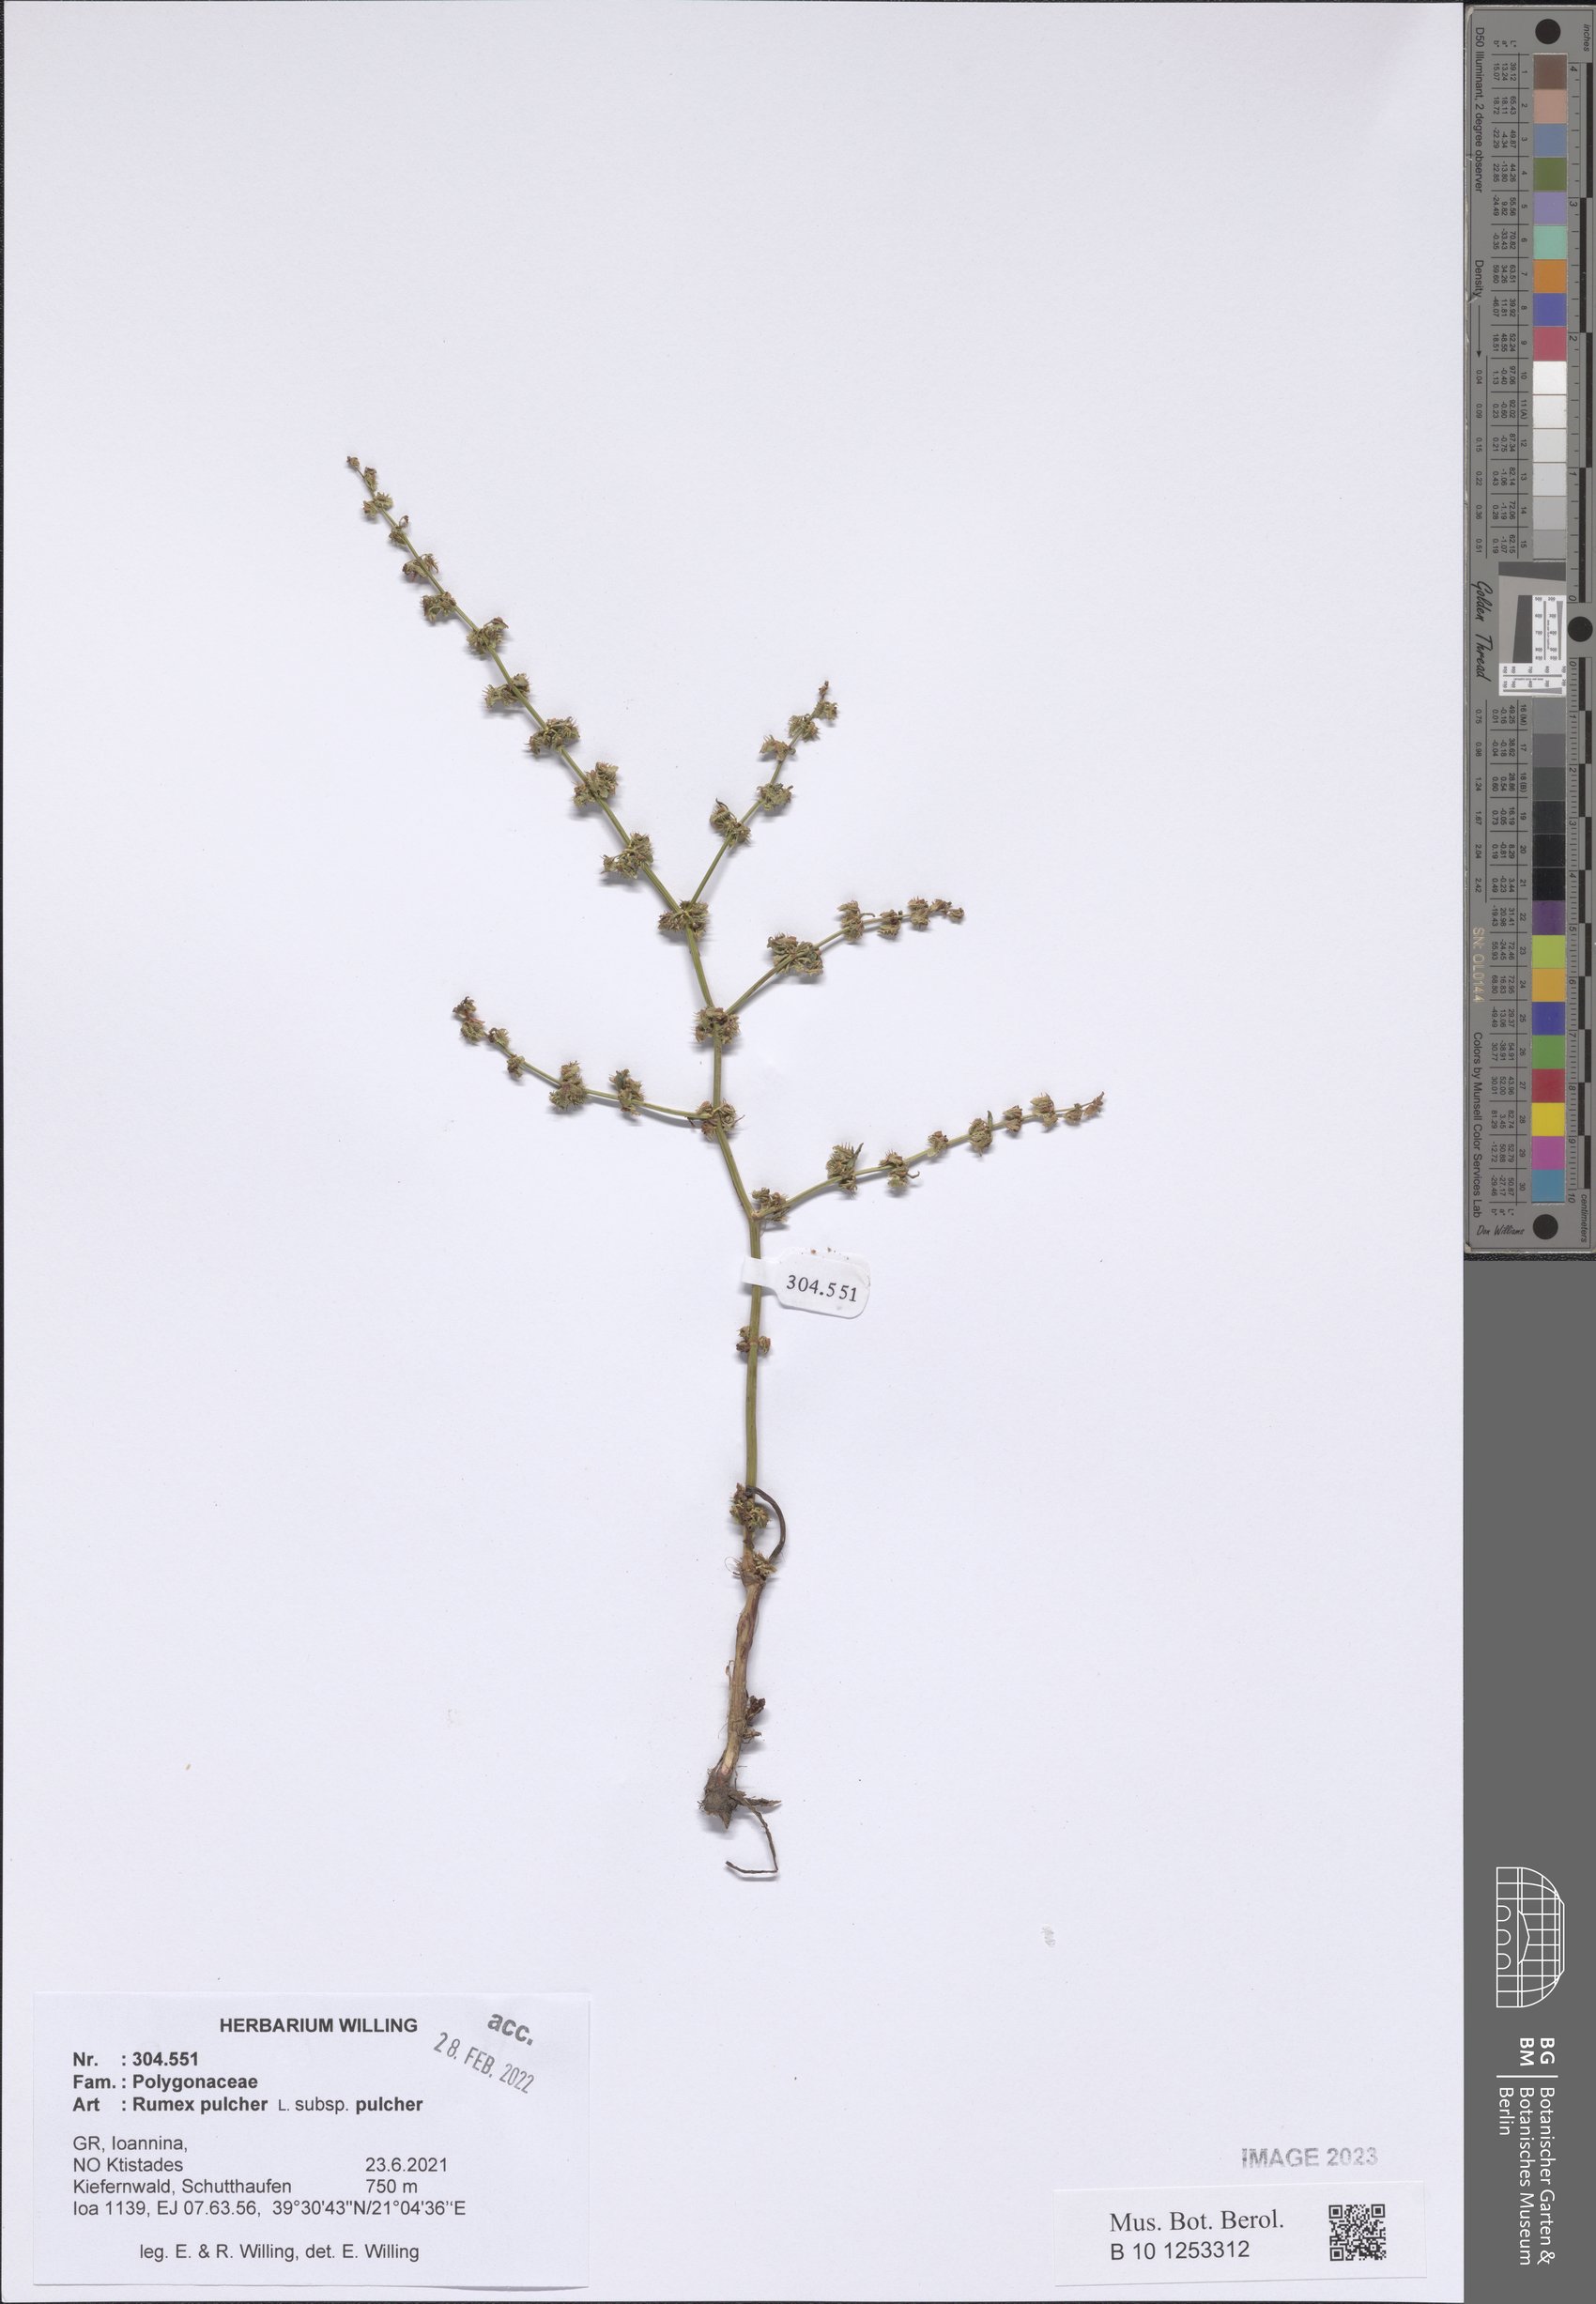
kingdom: Plantae
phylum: Tracheophyta
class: Magnoliopsida
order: Caryophyllales
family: Polygonaceae
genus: Rumex
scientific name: Rumex pulcher
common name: Fiddle dock
